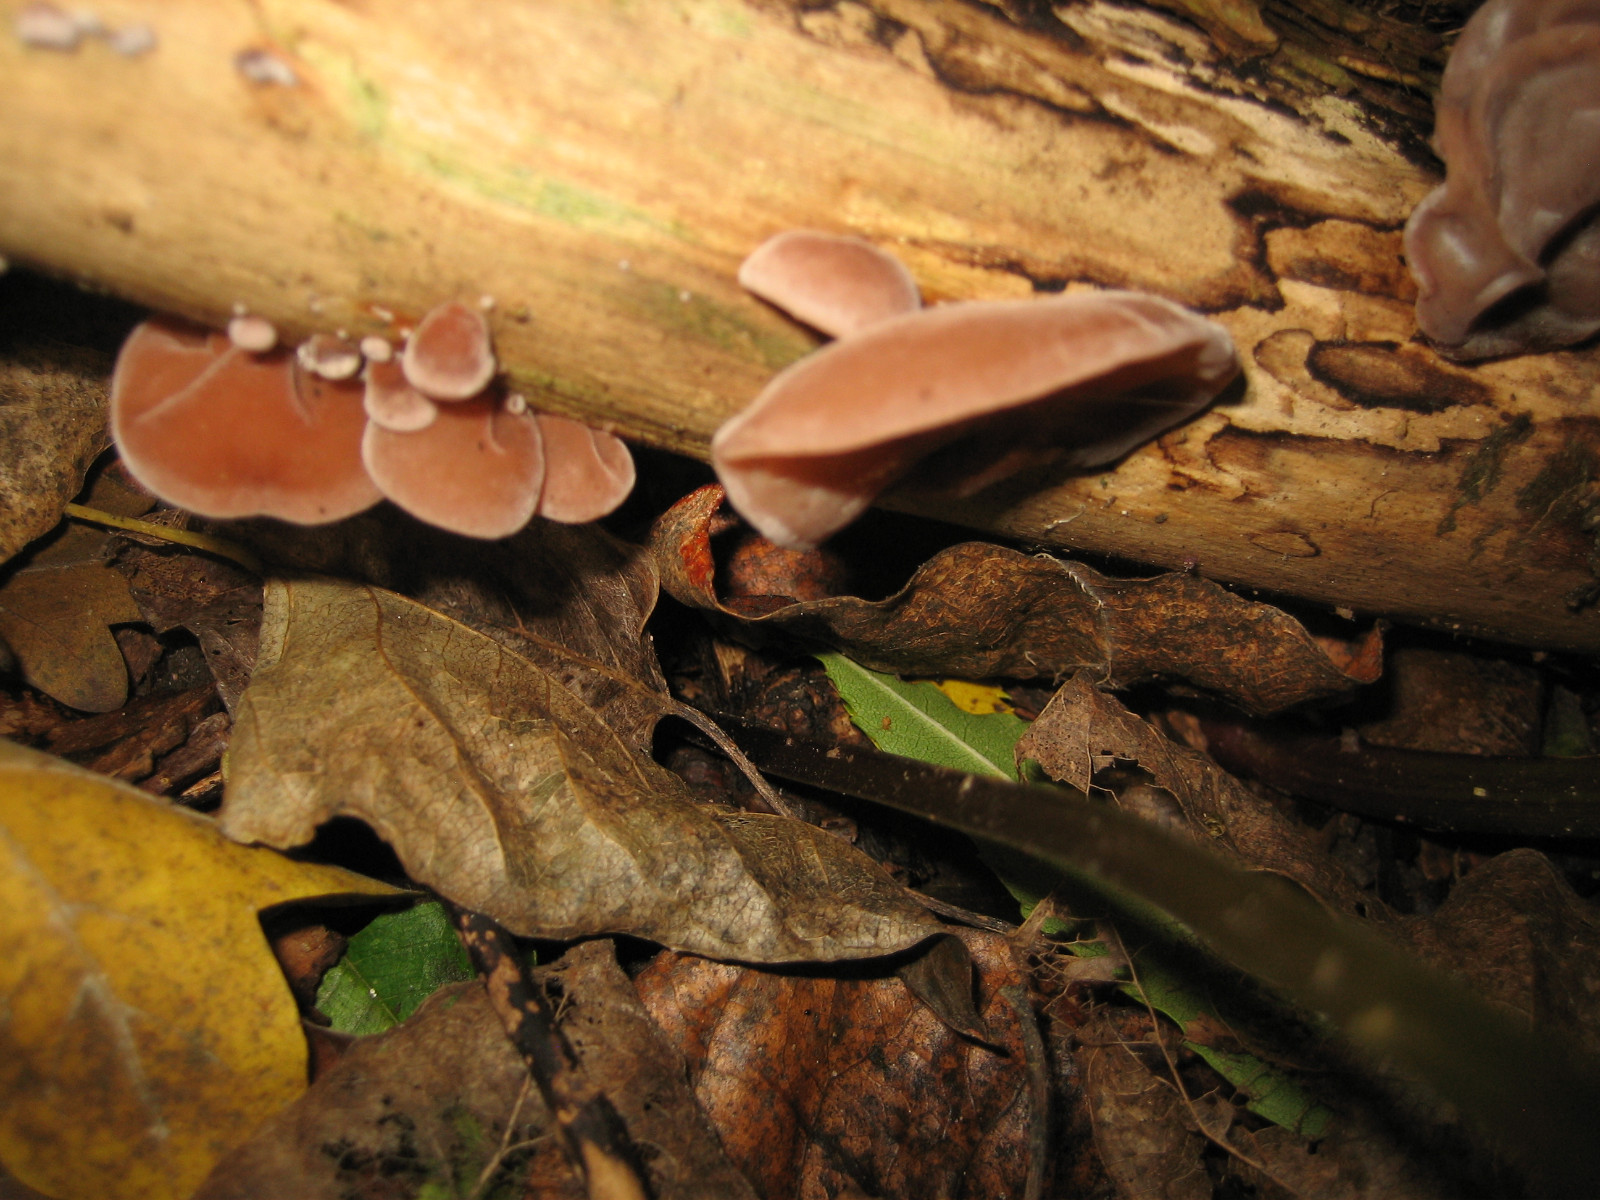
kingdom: Fungi
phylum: Basidiomycota
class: Agaricomycetes
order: Auriculariales
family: Auriculariaceae
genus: Auricularia
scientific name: Auricularia auricula-judae
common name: almindelig judasøre
